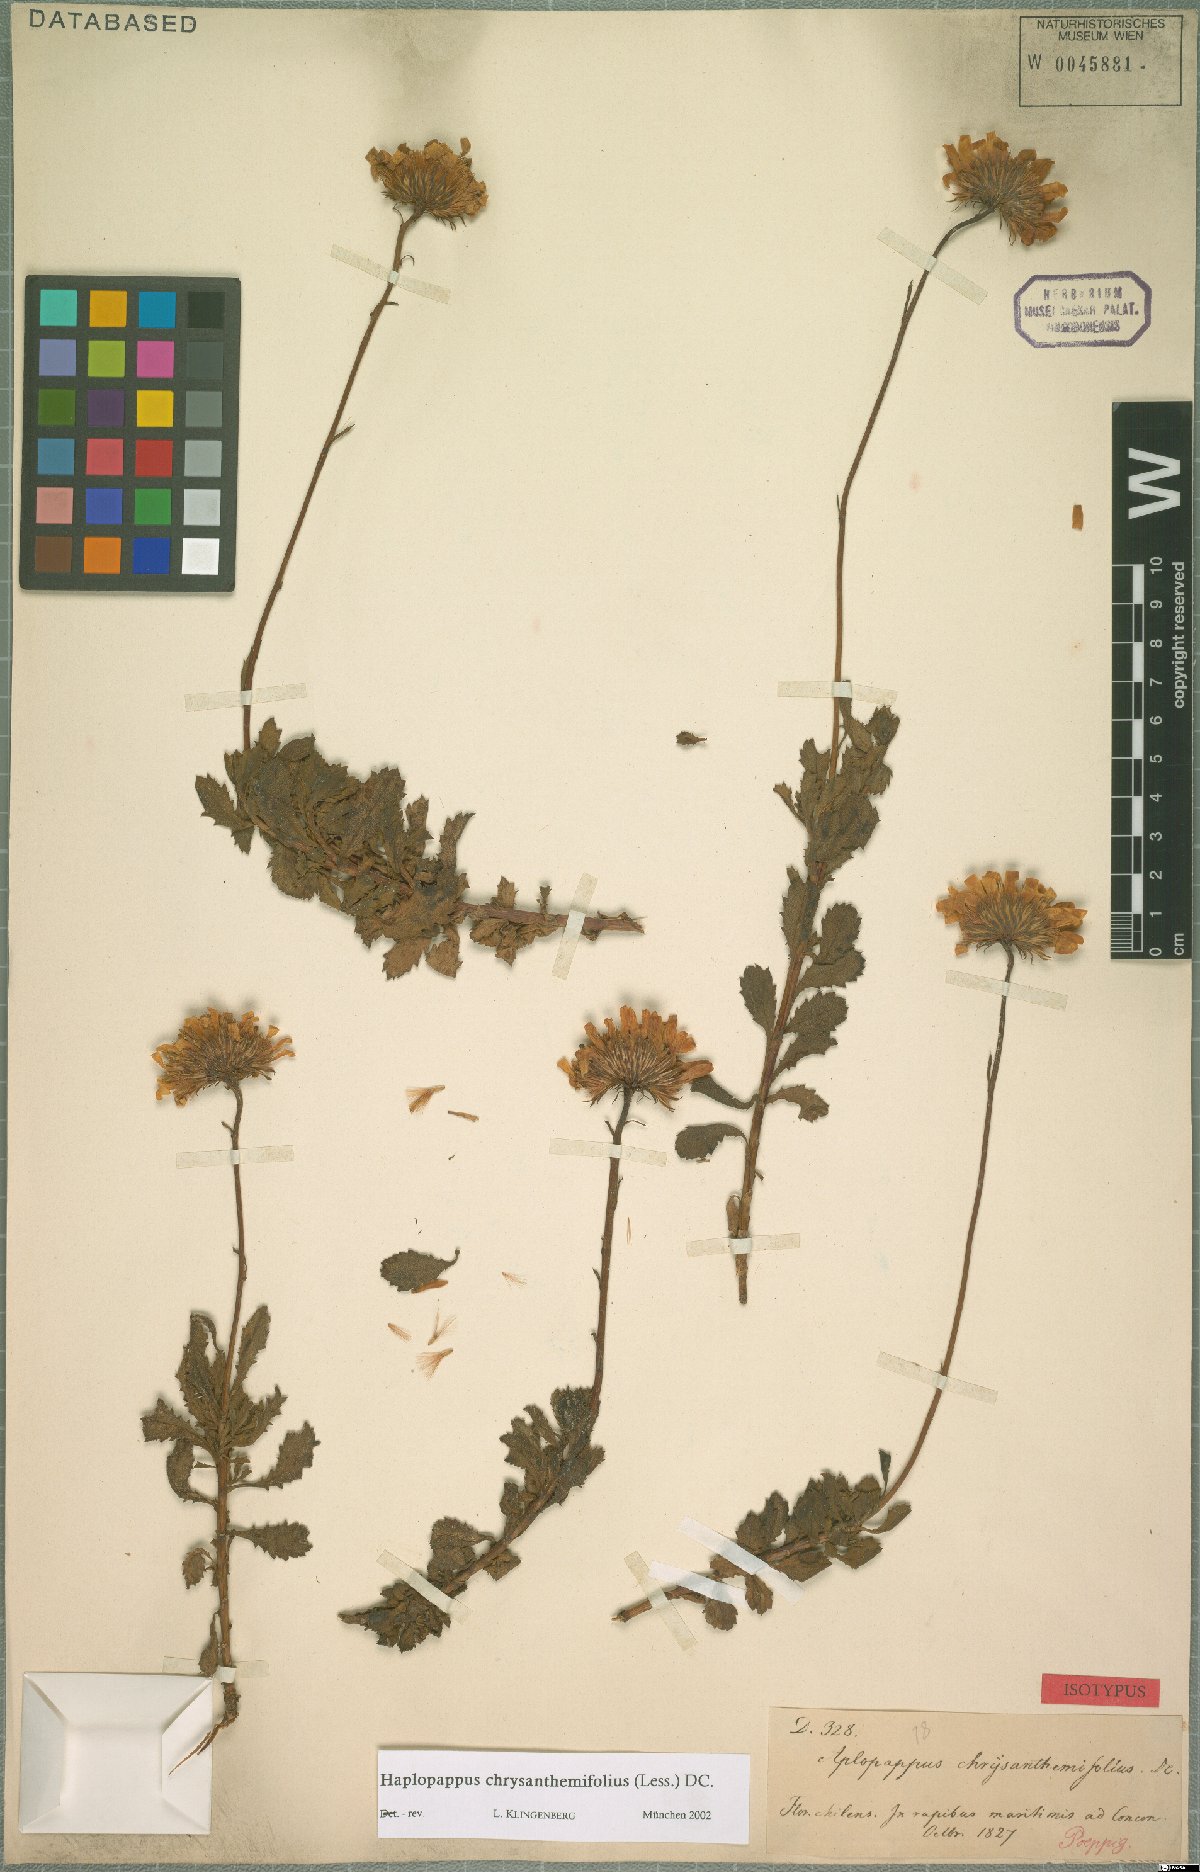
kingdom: Plantae
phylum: Tracheophyta
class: Magnoliopsida
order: Asterales
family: Asteraceae
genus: Haplopappus
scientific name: Haplopappus chrysanthemifolius
